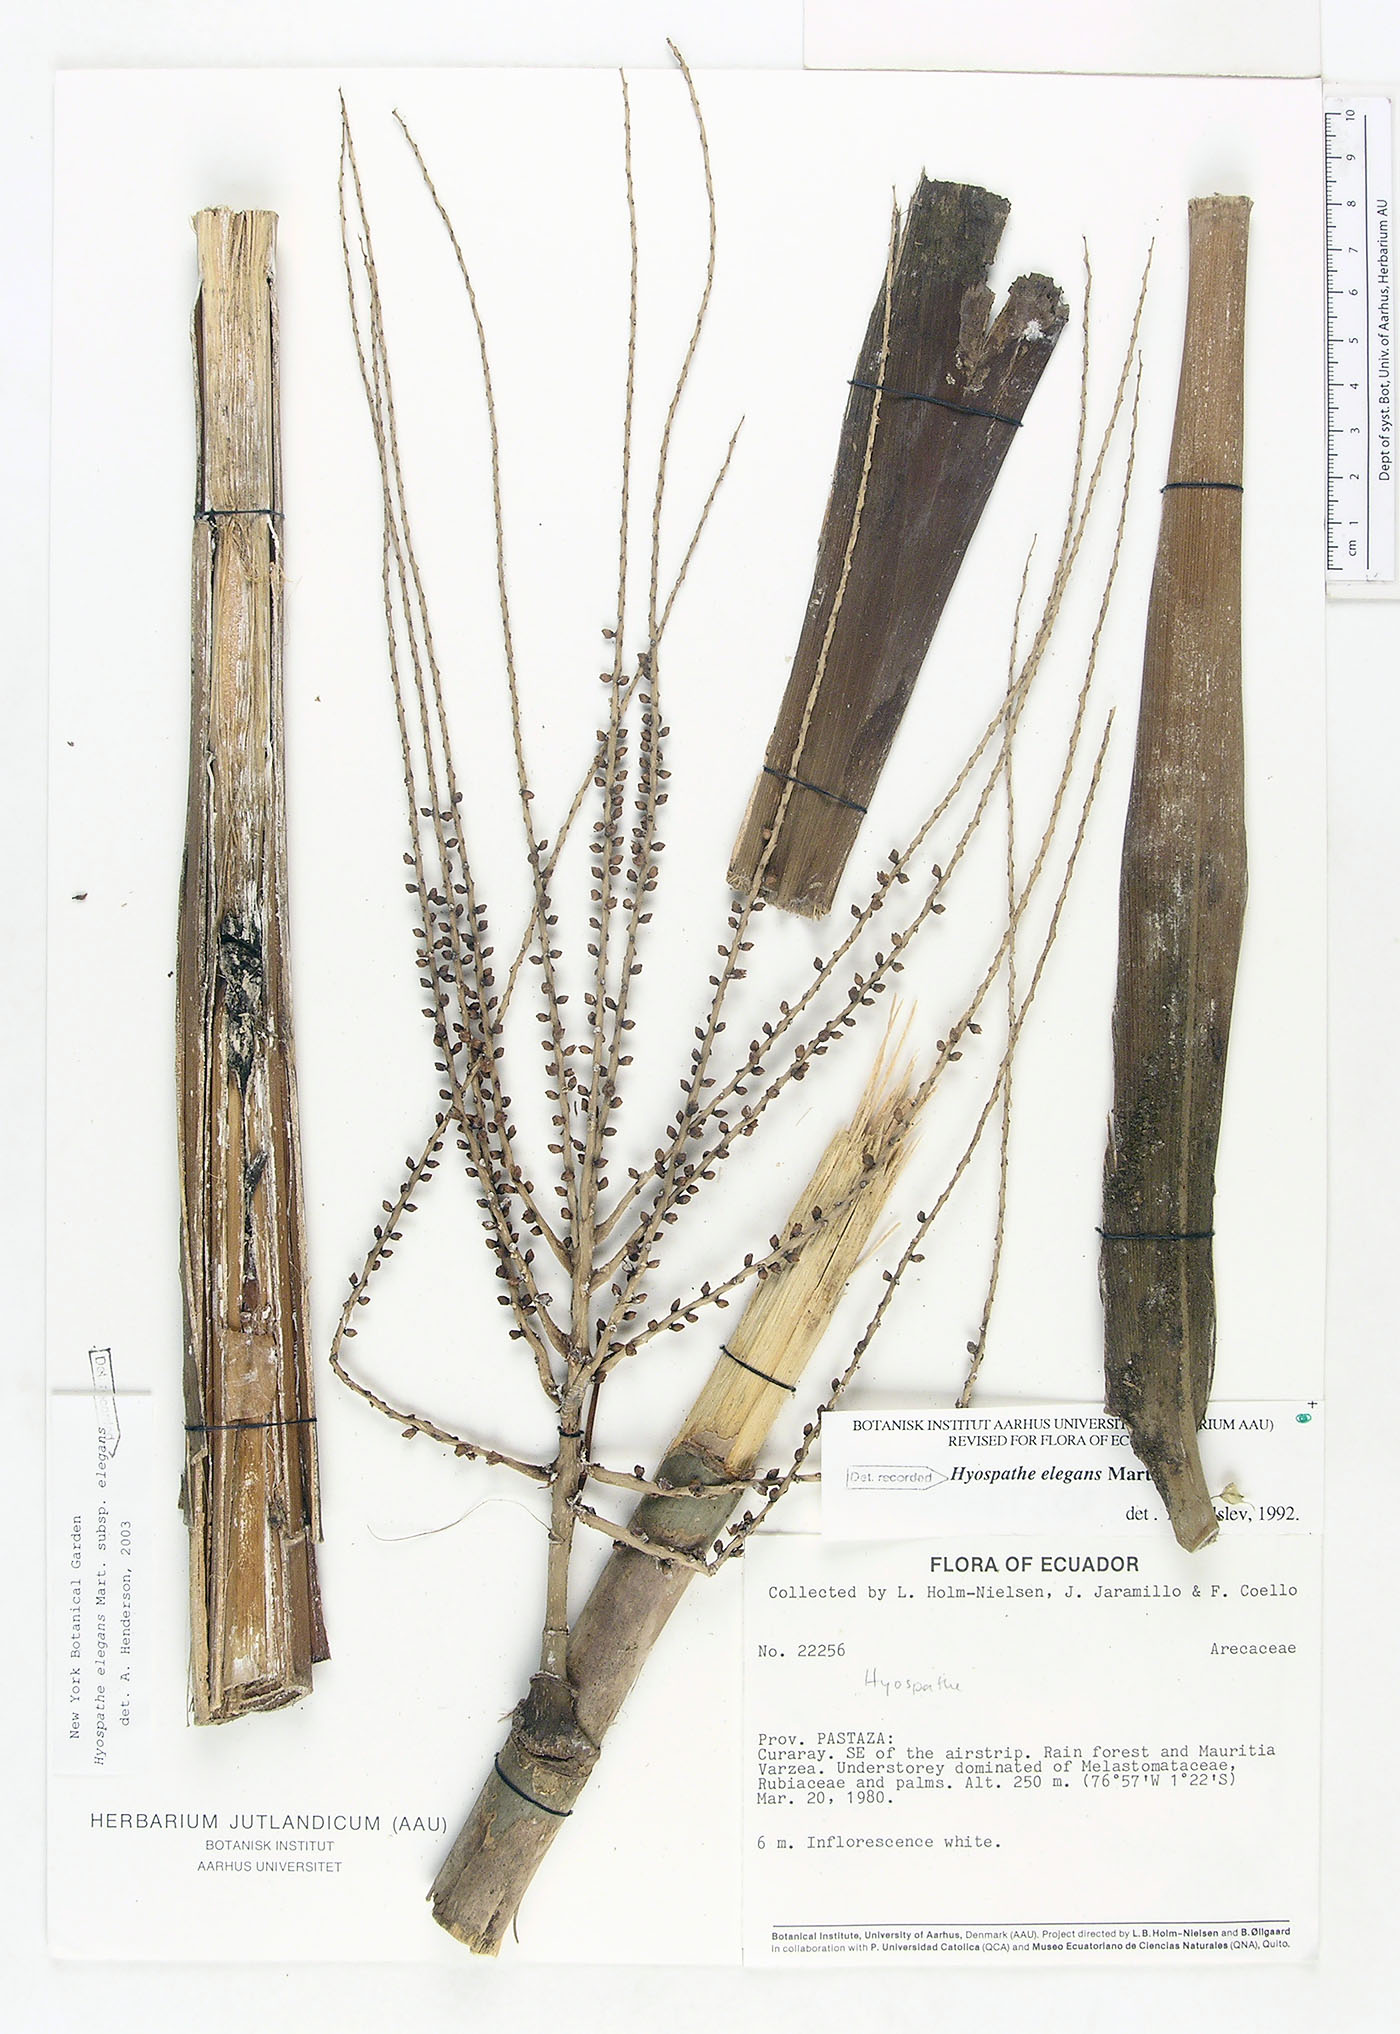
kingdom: Plantae
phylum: Tracheophyta
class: Liliopsida
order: Arecales
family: Arecaceae
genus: Hyospathe
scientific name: Hyospathe elegans
